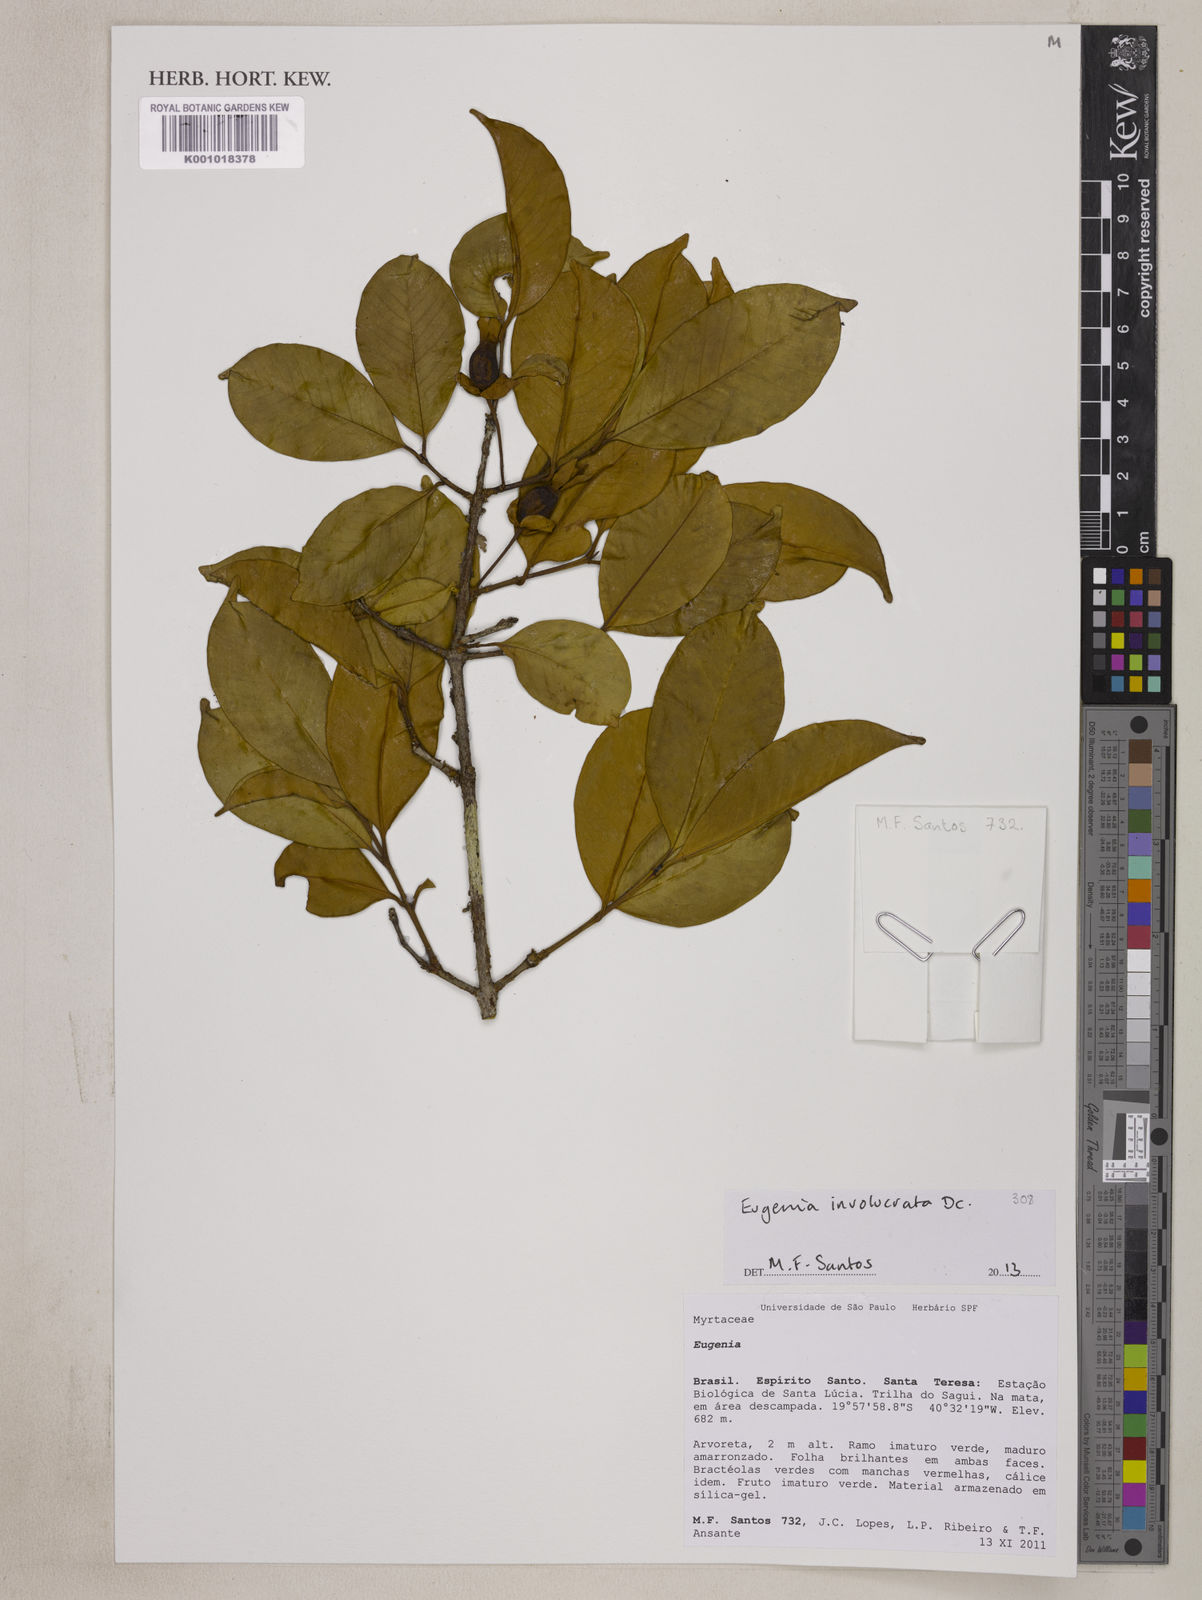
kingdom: Plantae
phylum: Tracheophyta
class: Magnoliopsida
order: Myrtales
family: Myrtaceae
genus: Eugenia
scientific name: Eugenia involucrata
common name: Cherry-of-the-rio grande
